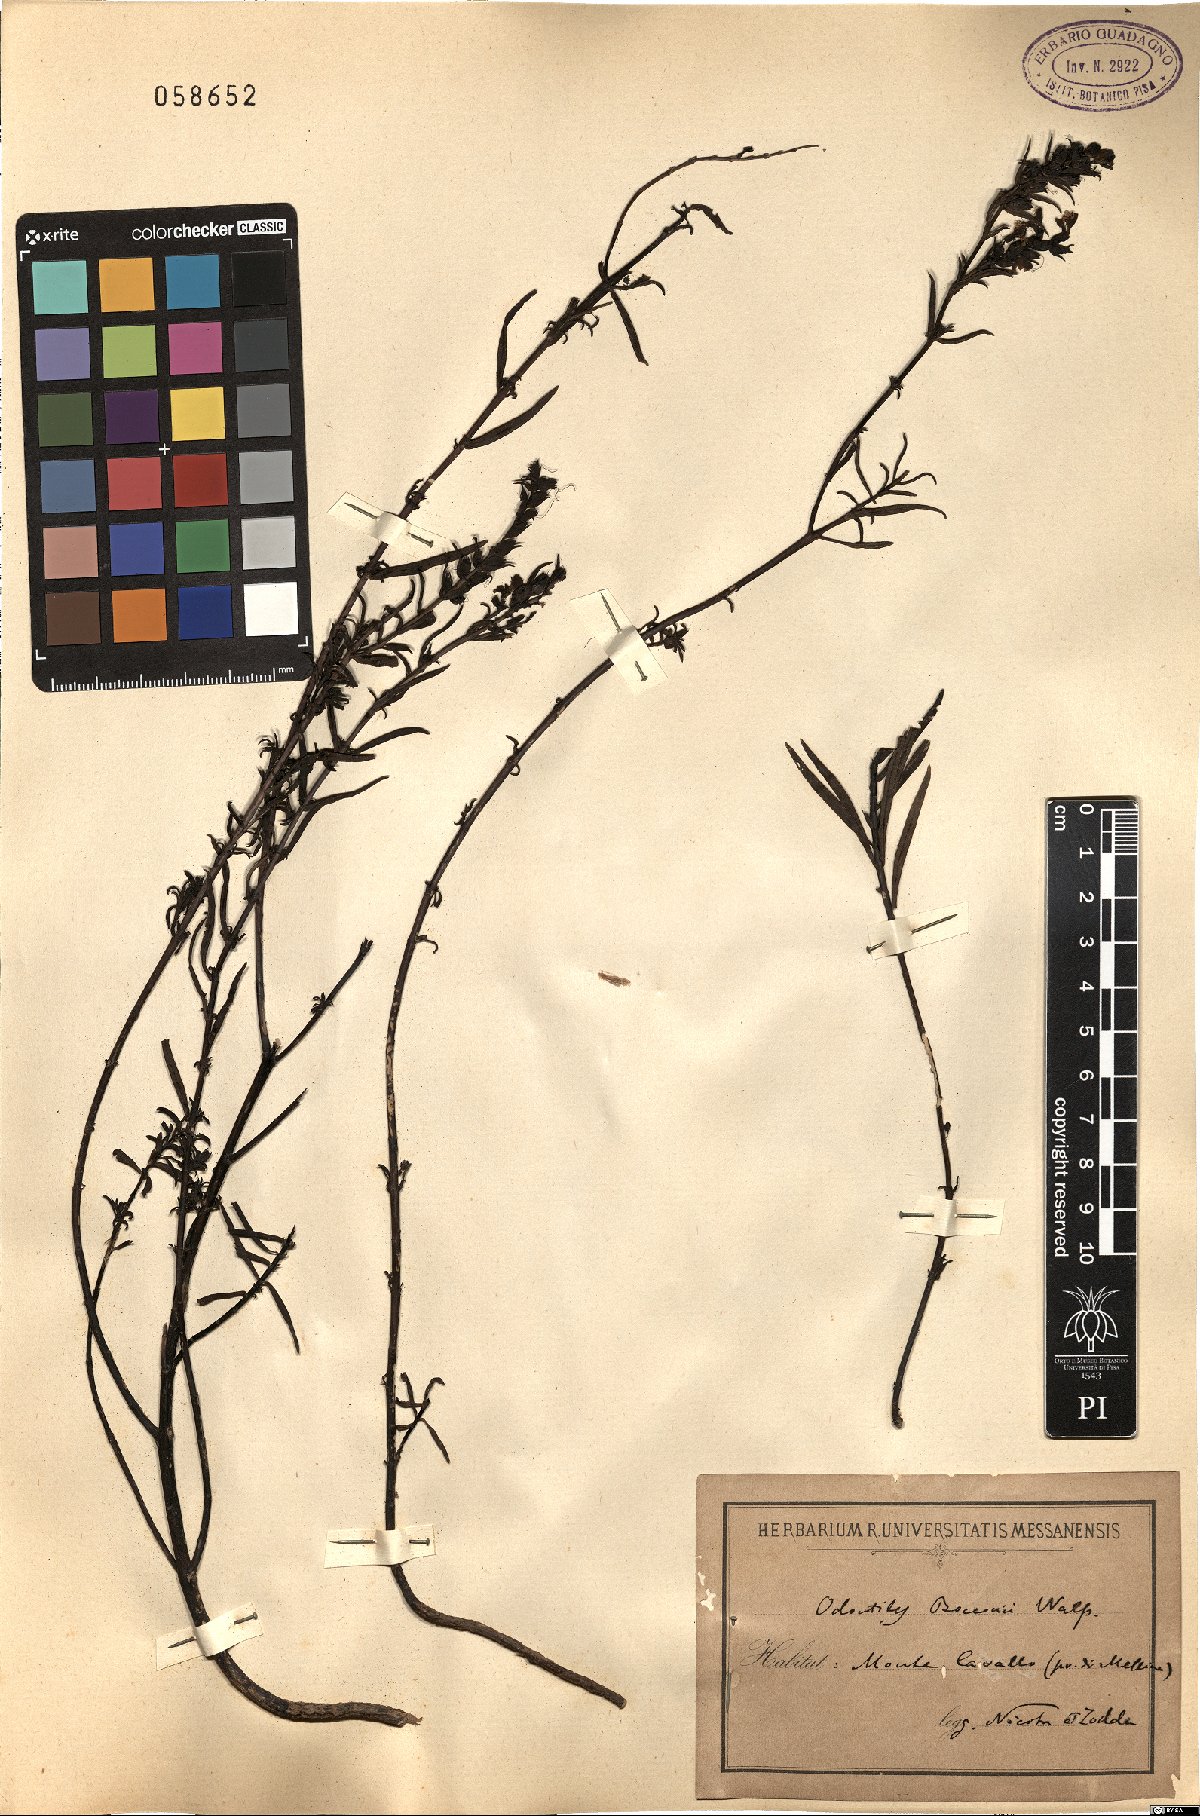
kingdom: Plantae
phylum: Tracheophyta
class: Magnoliopsida
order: Lamiales
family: Orobanchaceae
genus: Odontites
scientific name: Odontites bocconei
